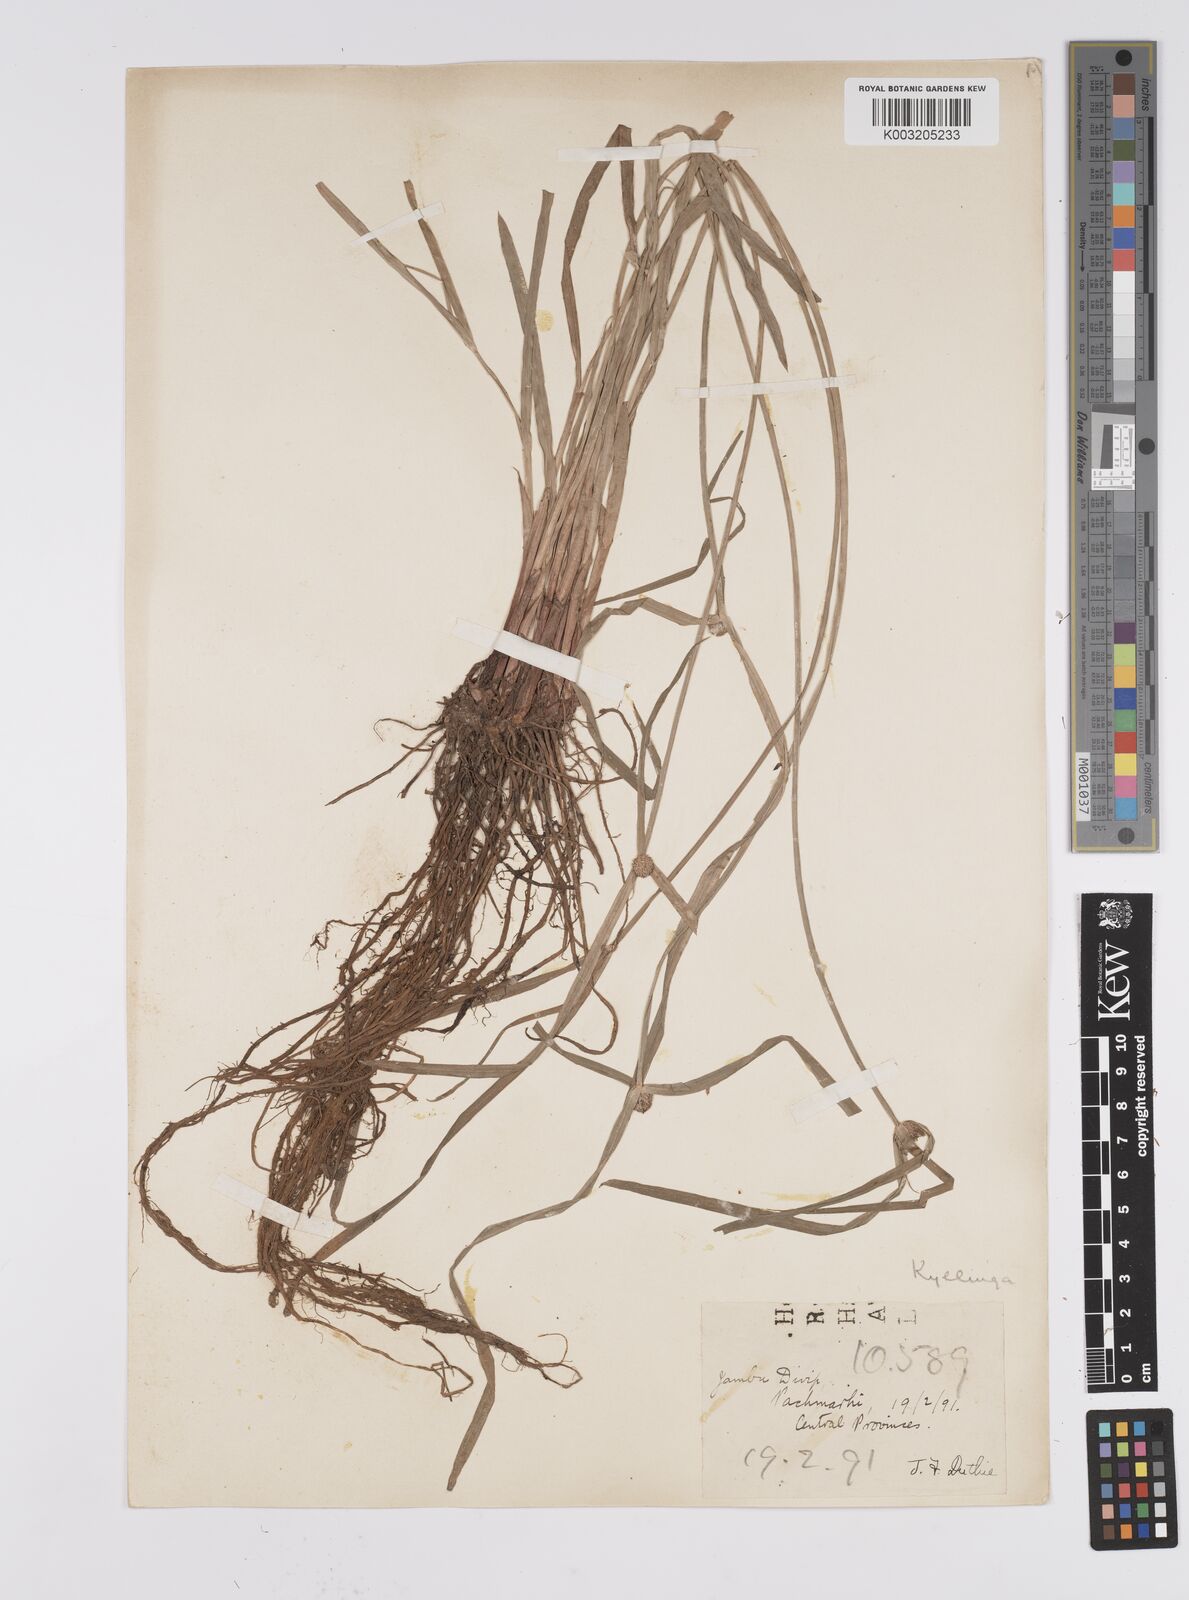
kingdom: Plantae
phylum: Tracheophyta
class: Liliopsida
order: Poales
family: Cyperaceae
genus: Cyperus
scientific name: Cyperus melanospermus
